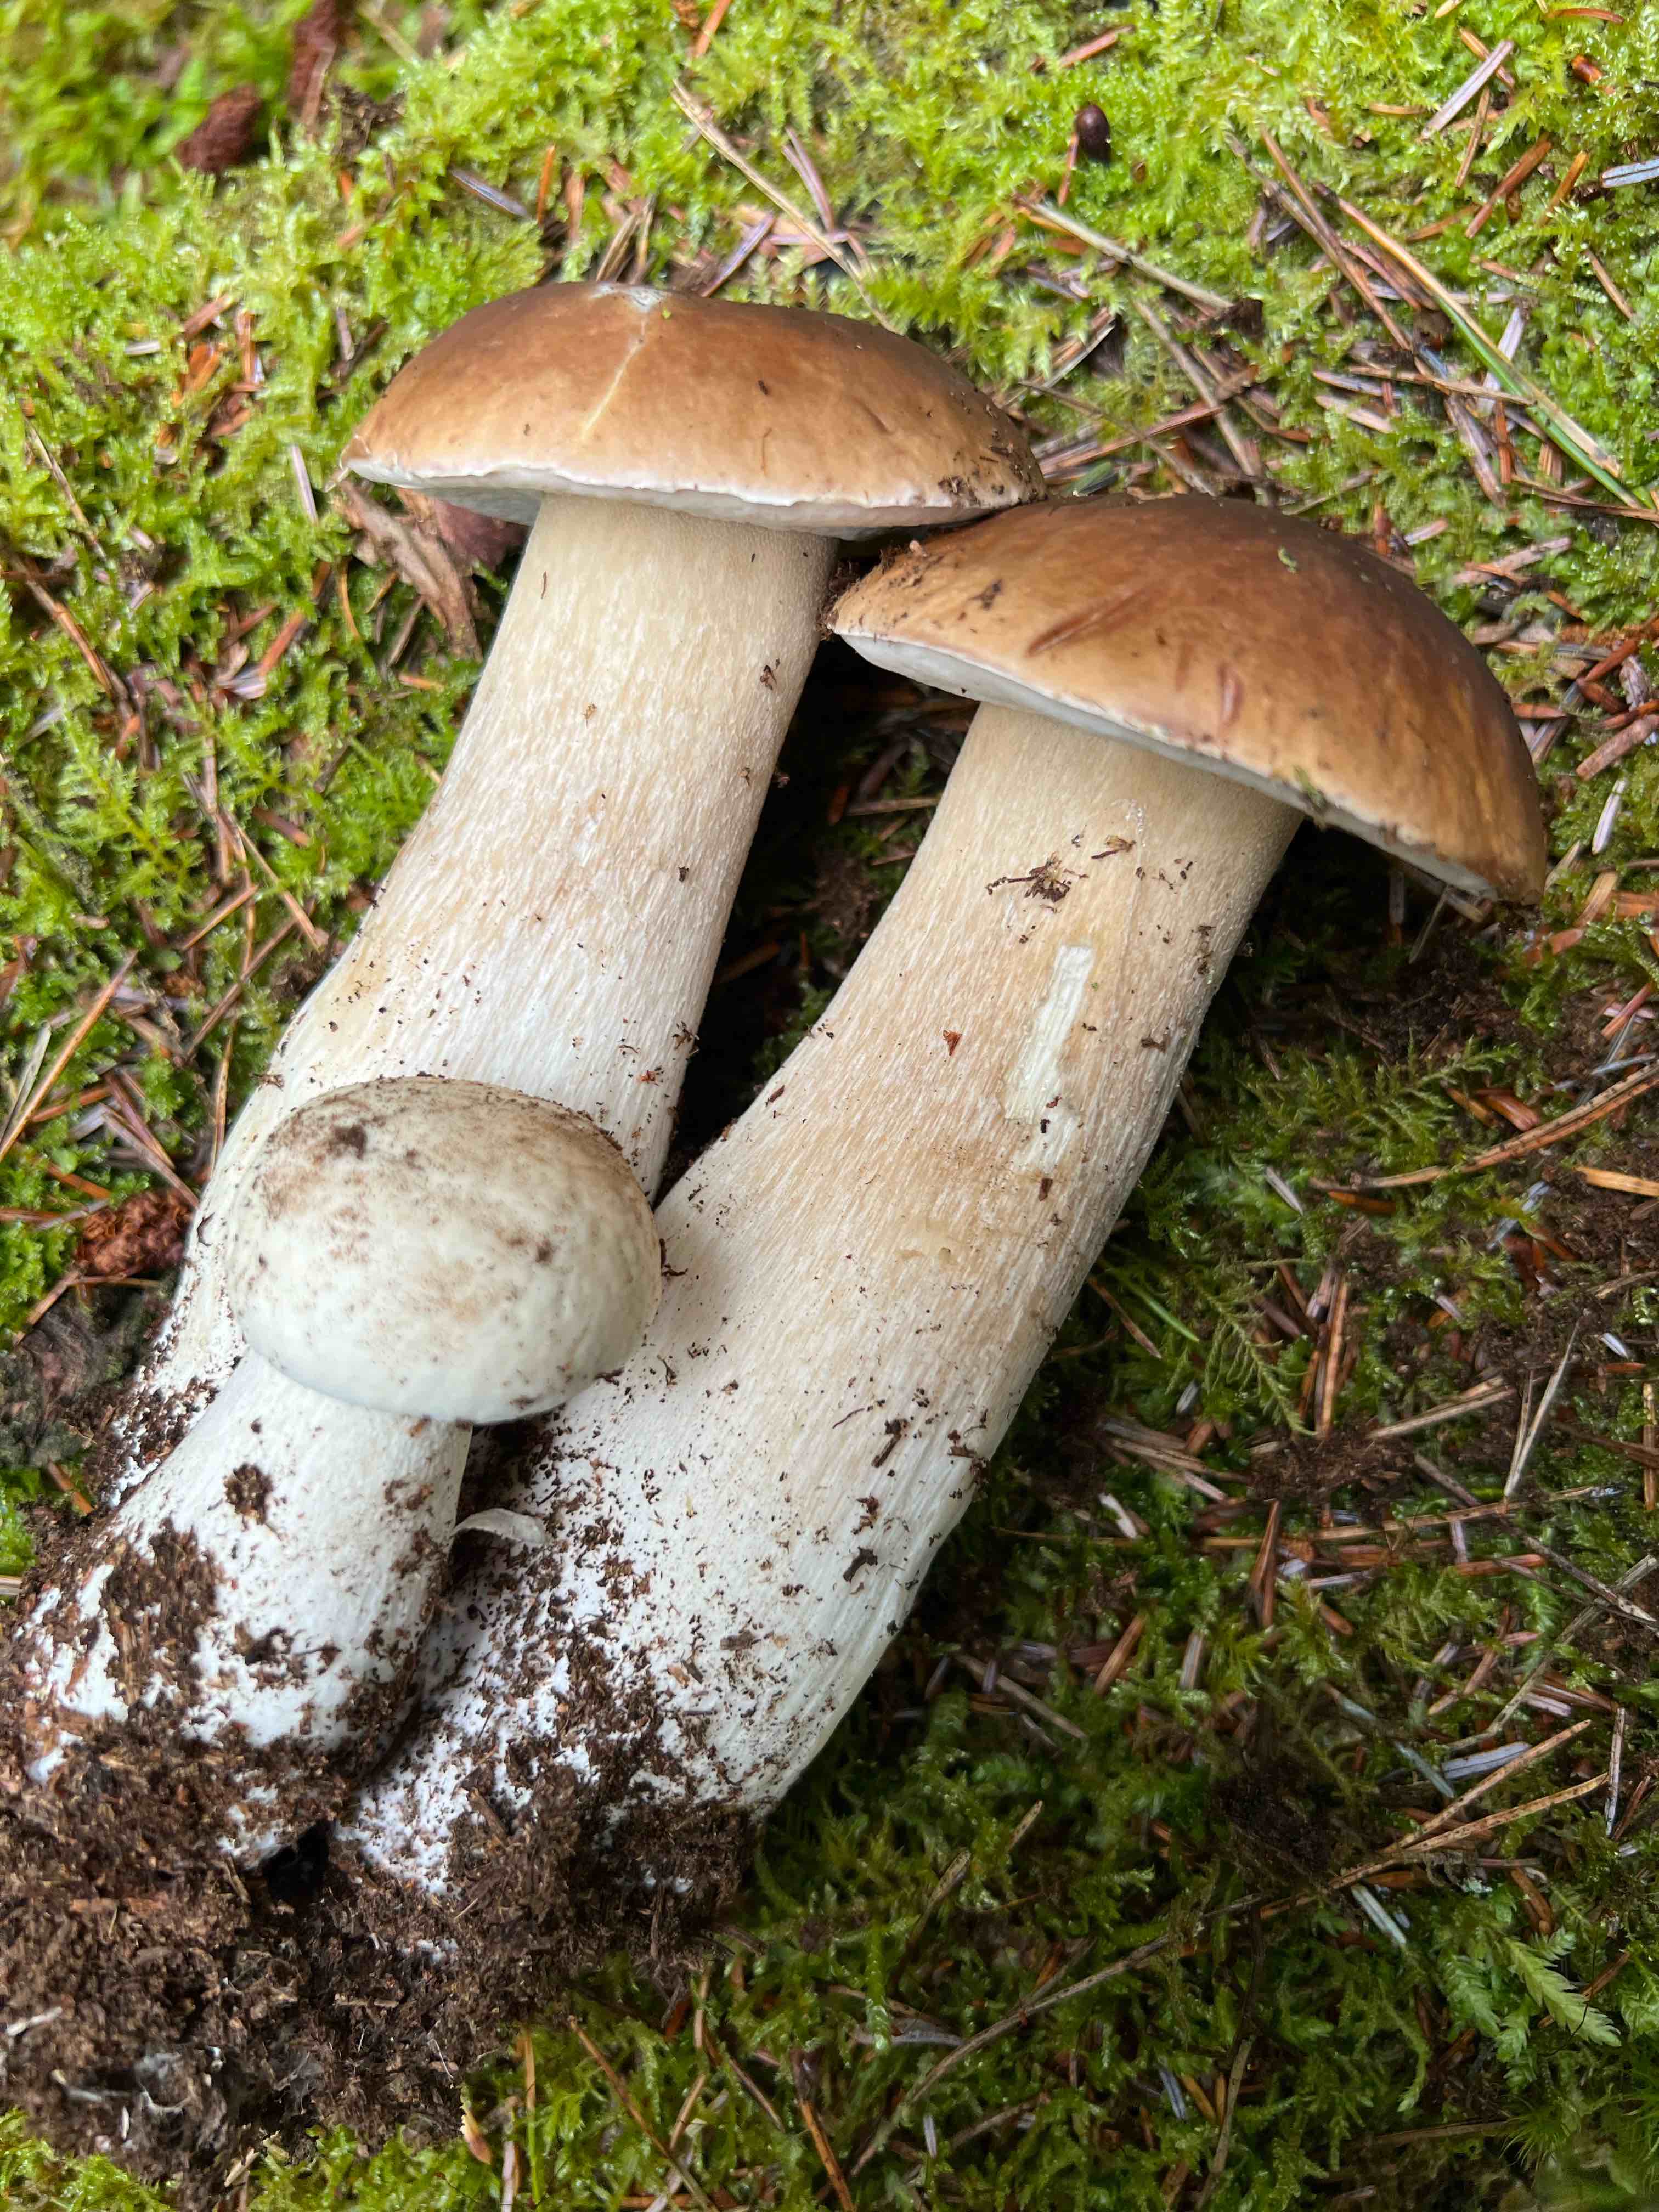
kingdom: Fungi
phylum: Basidiomycota
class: Agaricomycetes
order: Boletales
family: Boletaceae
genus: Boletus
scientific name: Boletus edulis
